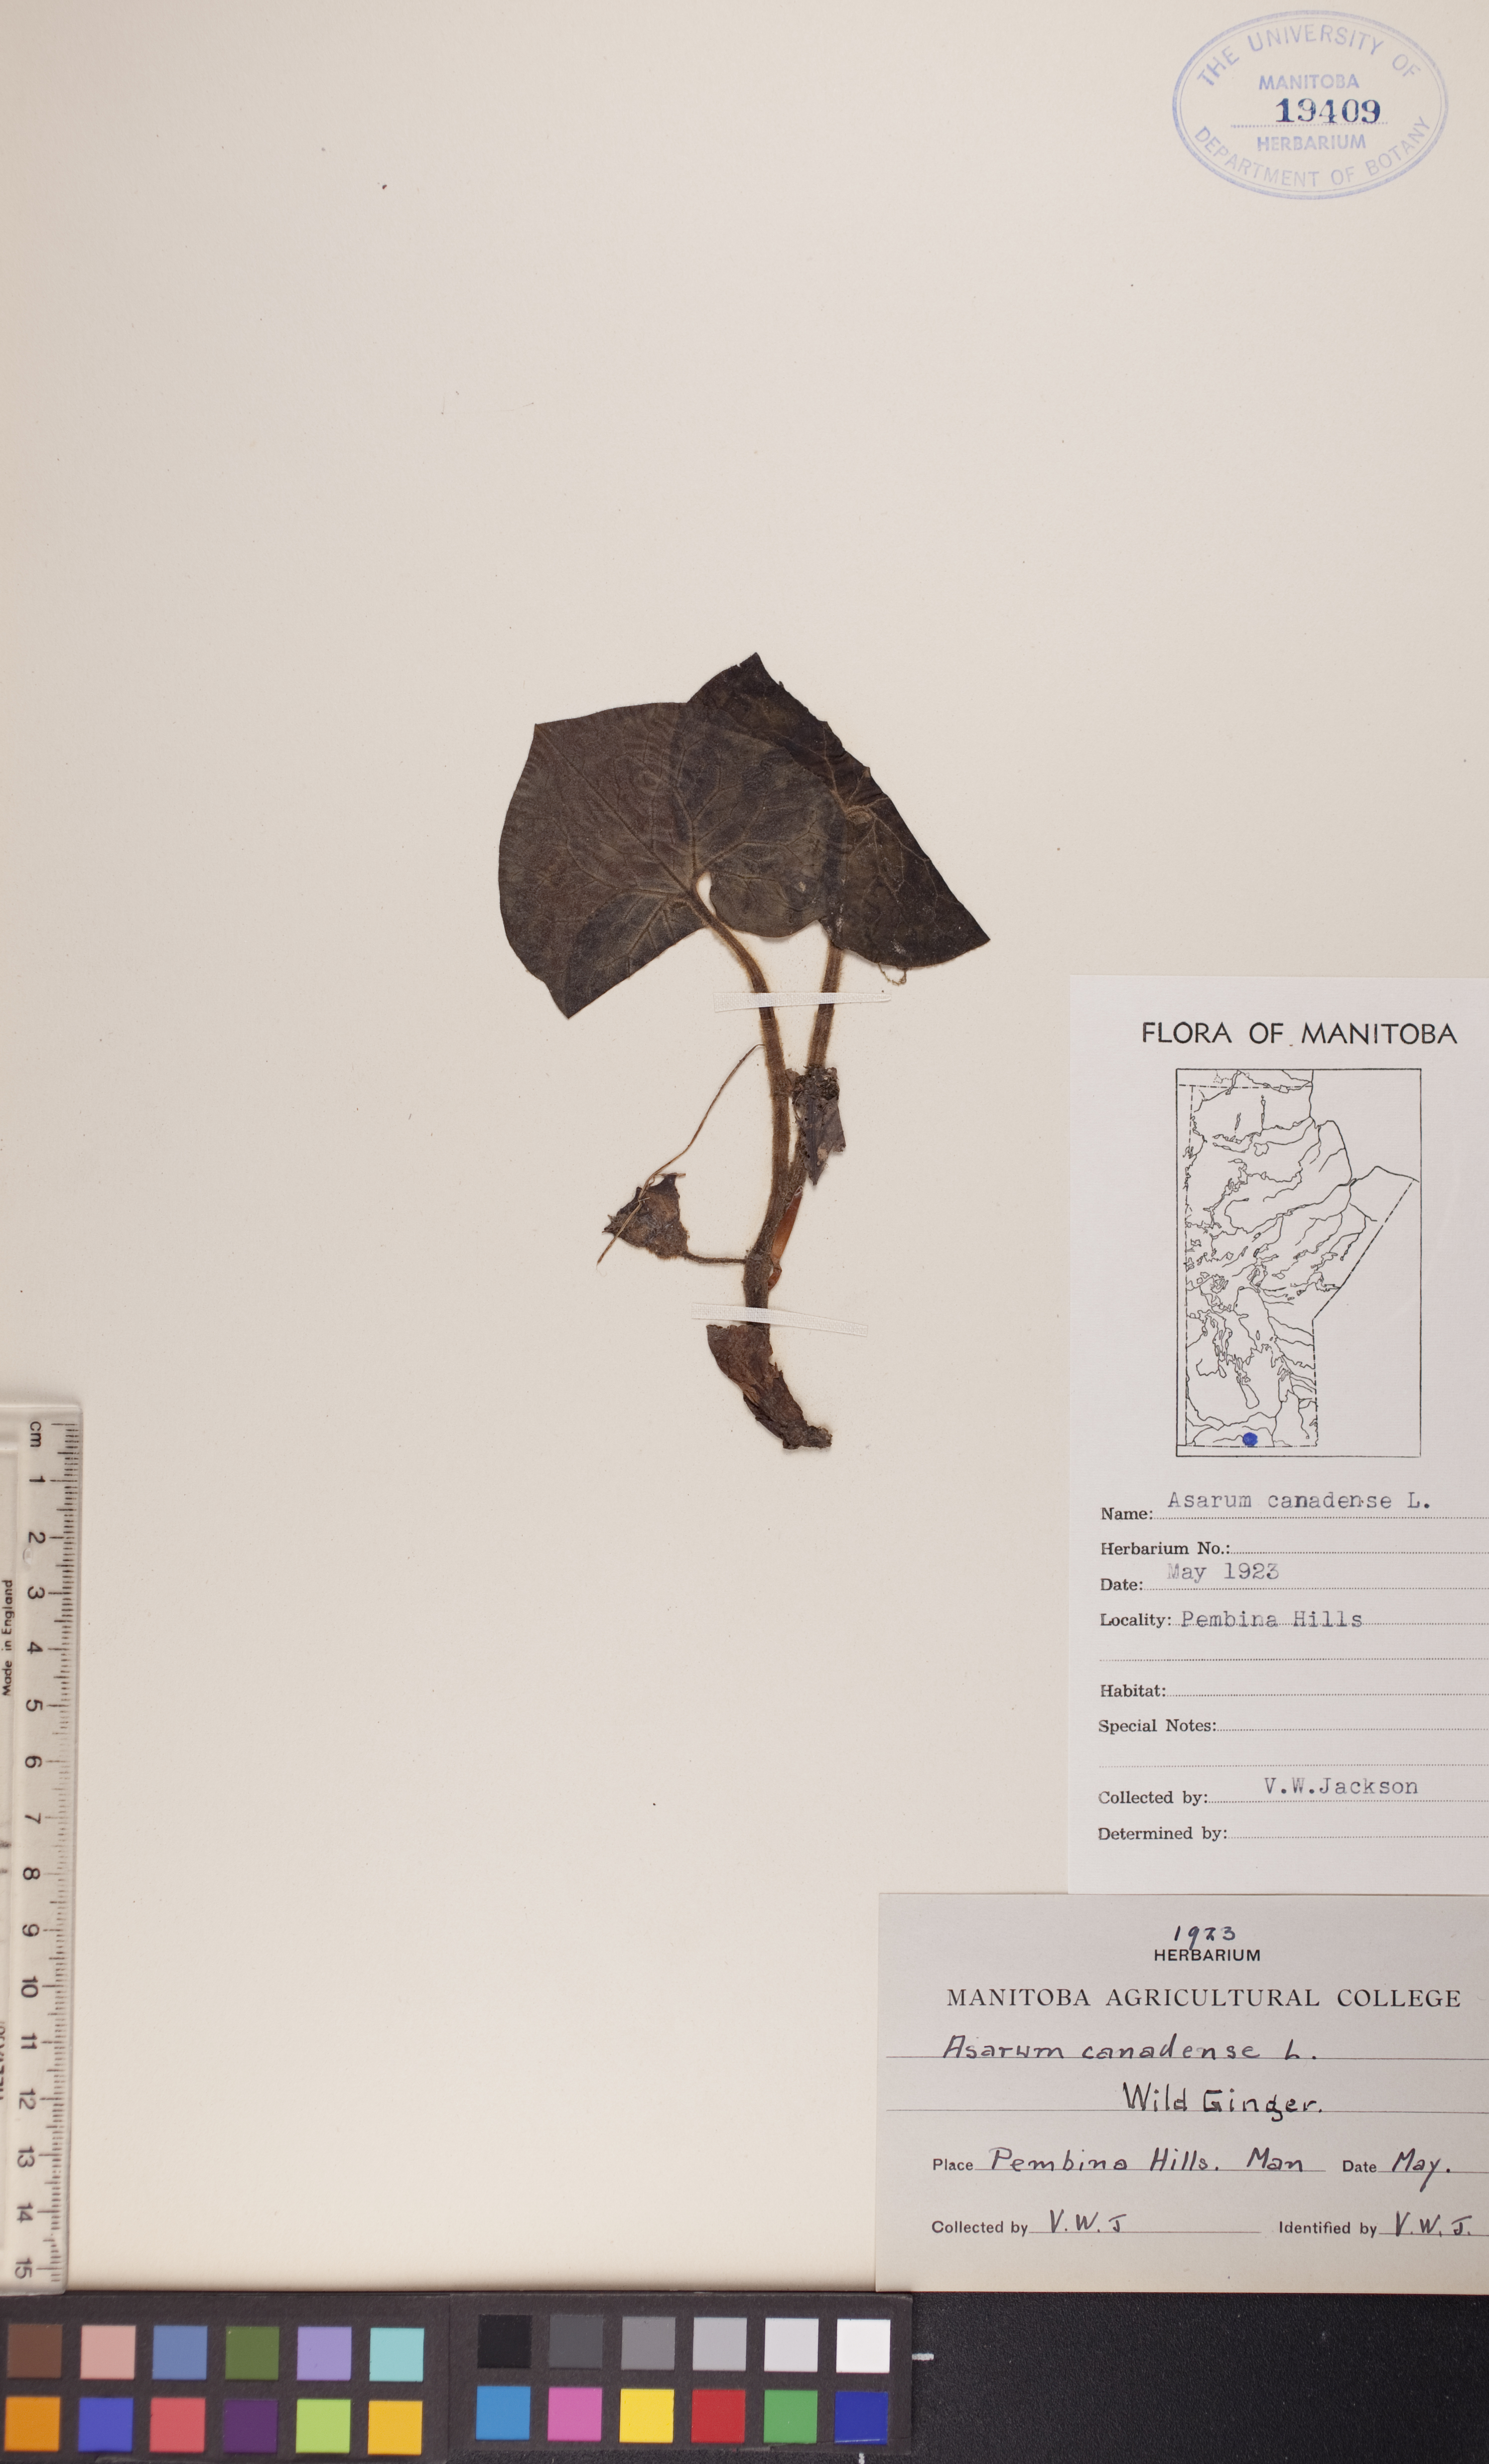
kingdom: Plantae
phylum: Tracheophyta
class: Magnoliopsida
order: Piperales
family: Aristolochiaceae
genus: Asarum
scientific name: Asarum canadense
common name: Wild ginger
